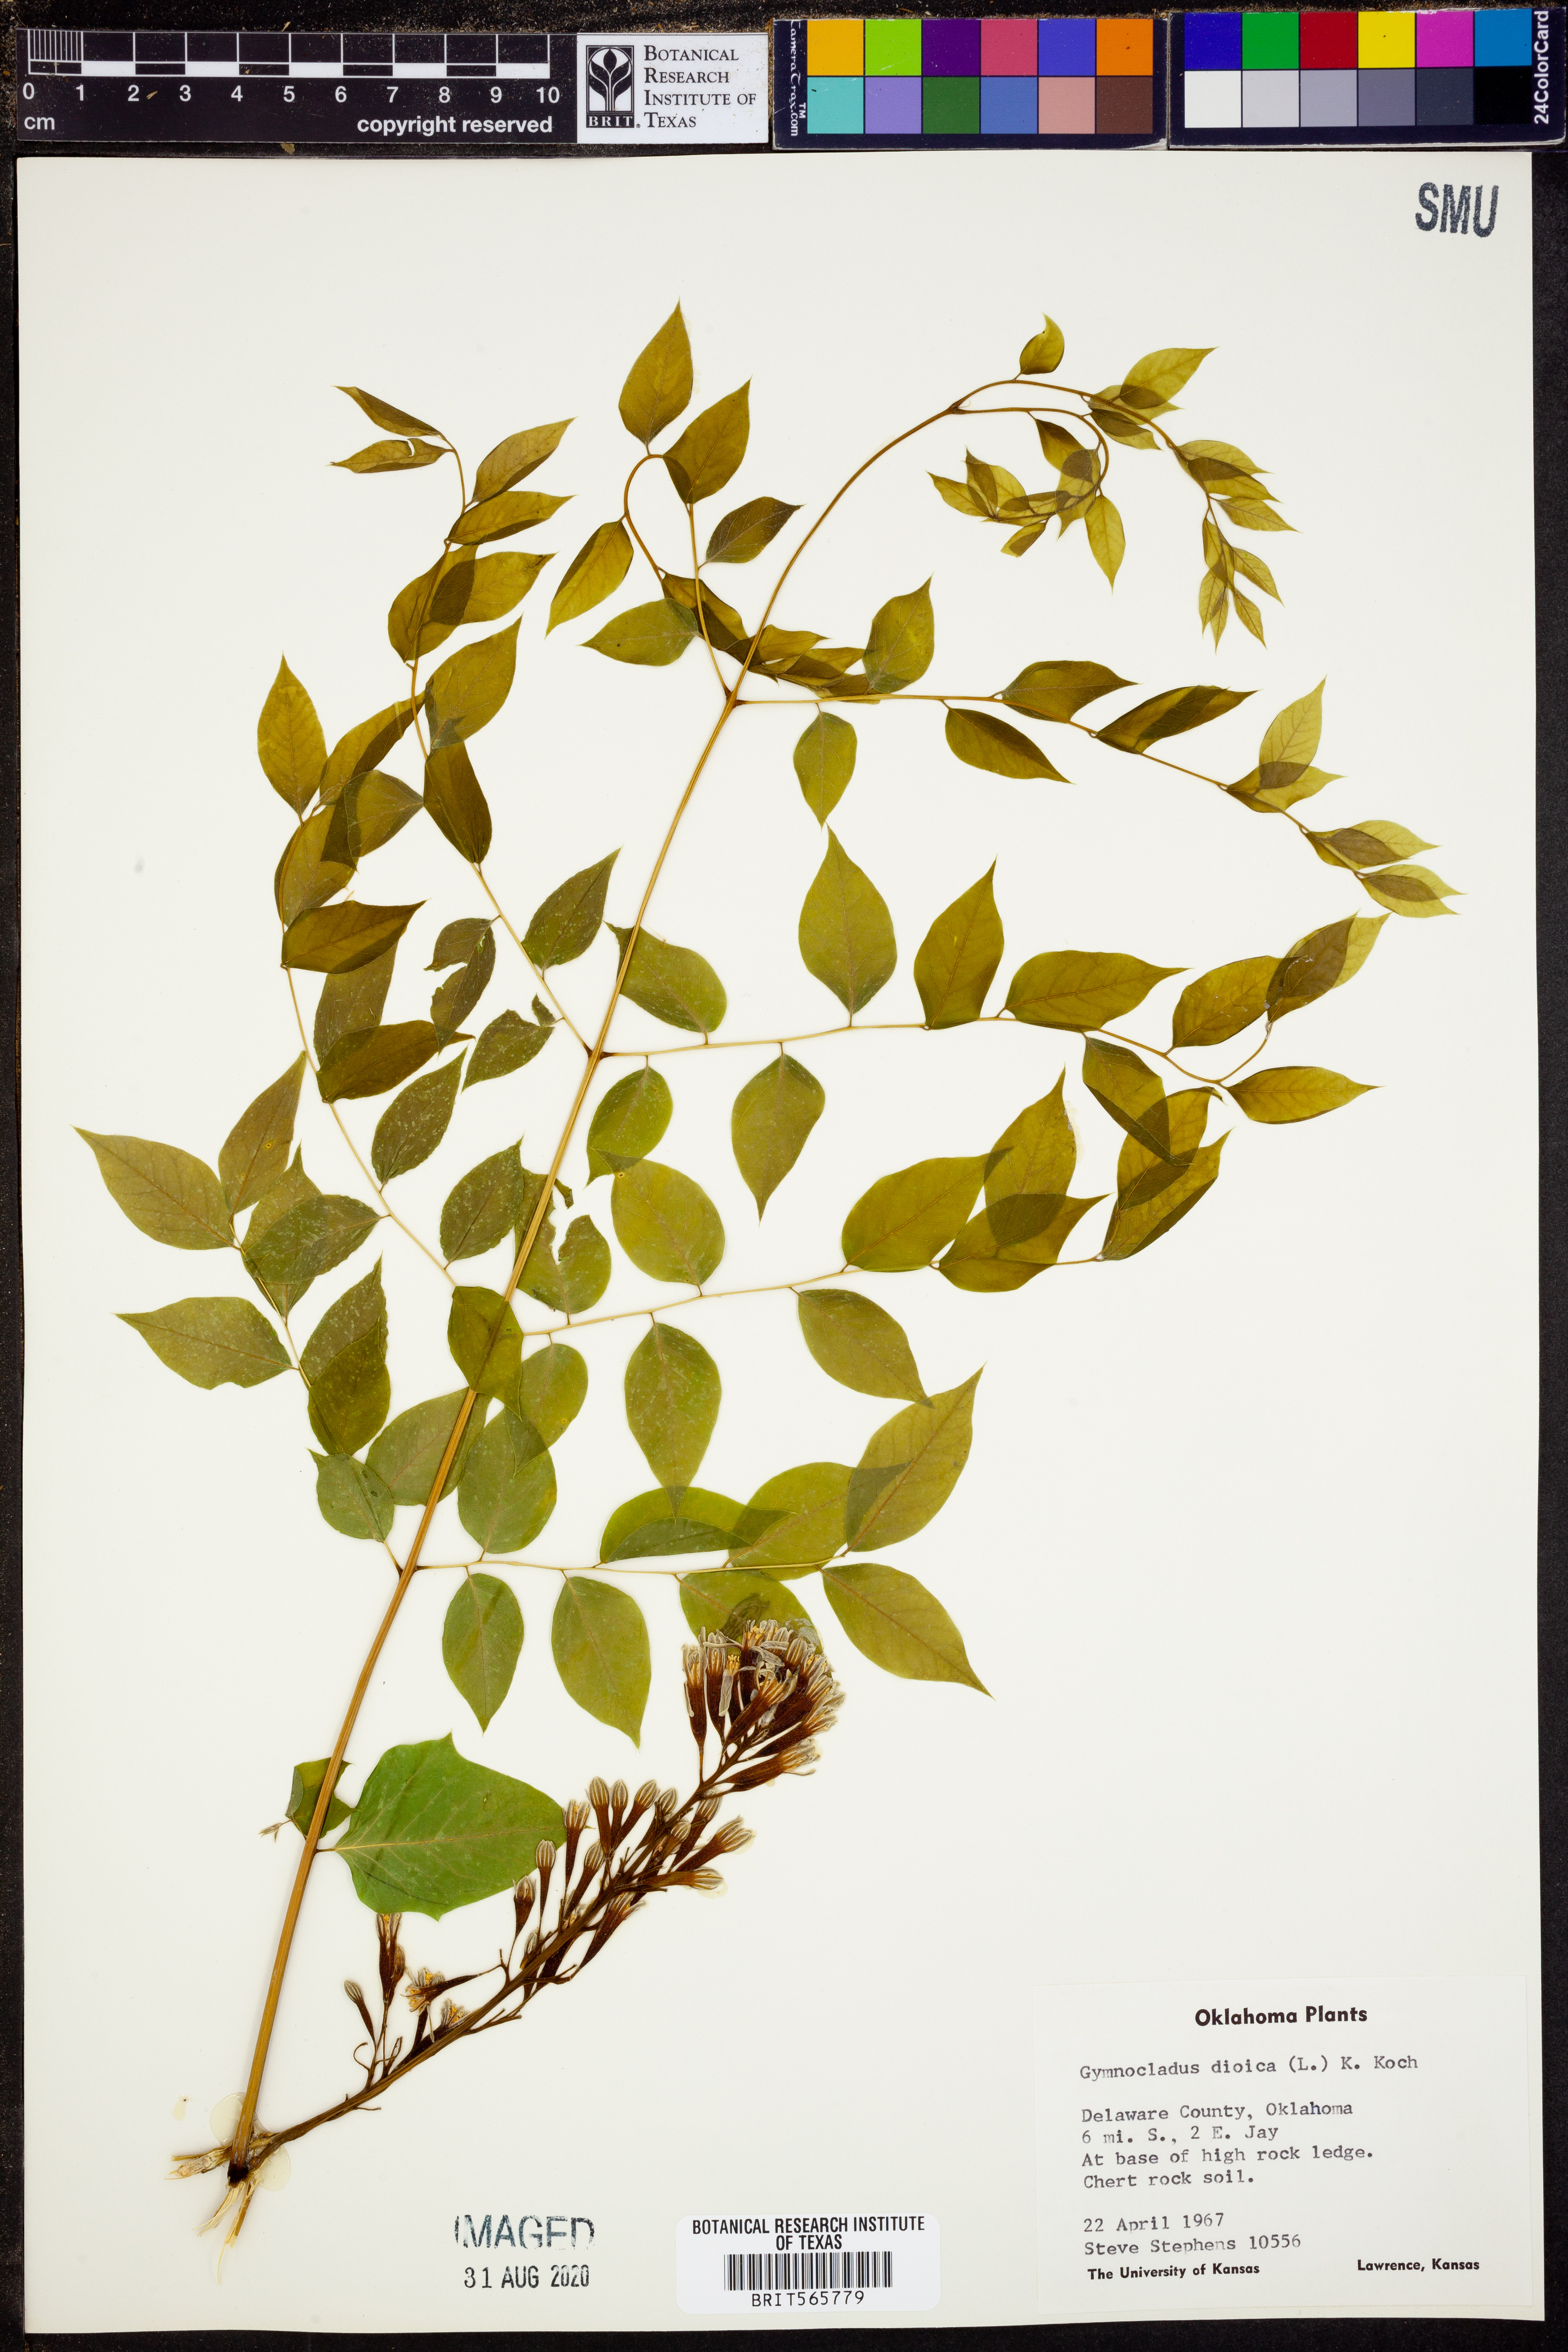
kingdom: Plantae
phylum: Tracheophyta
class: Magnoliopsida
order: Fabales
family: Fabaceae
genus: Gymnocladus
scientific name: Gymnocladus dioicus
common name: Kentucky coffee-tree
